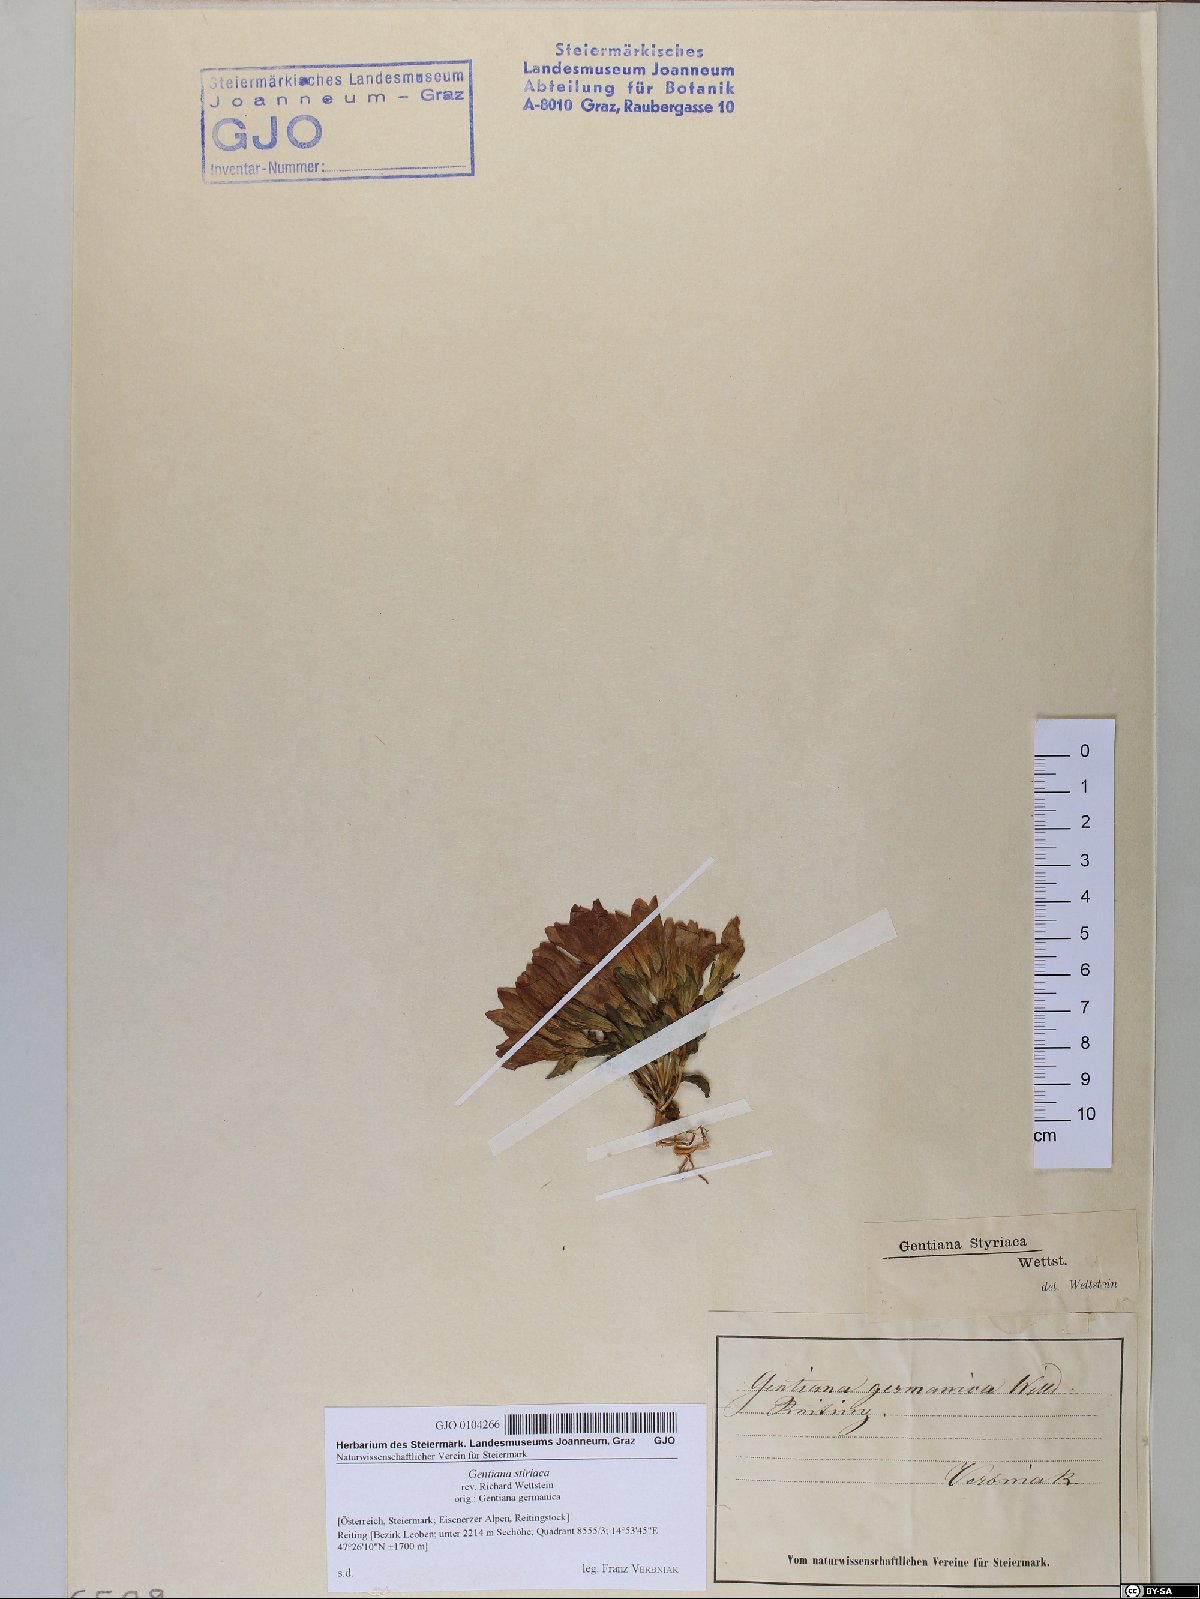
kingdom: Plantae
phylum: Tracheophyta
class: Magnoliopsida
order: Gentianales
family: Gentianaceae
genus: Gentianella
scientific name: Gentianella rhaetica
